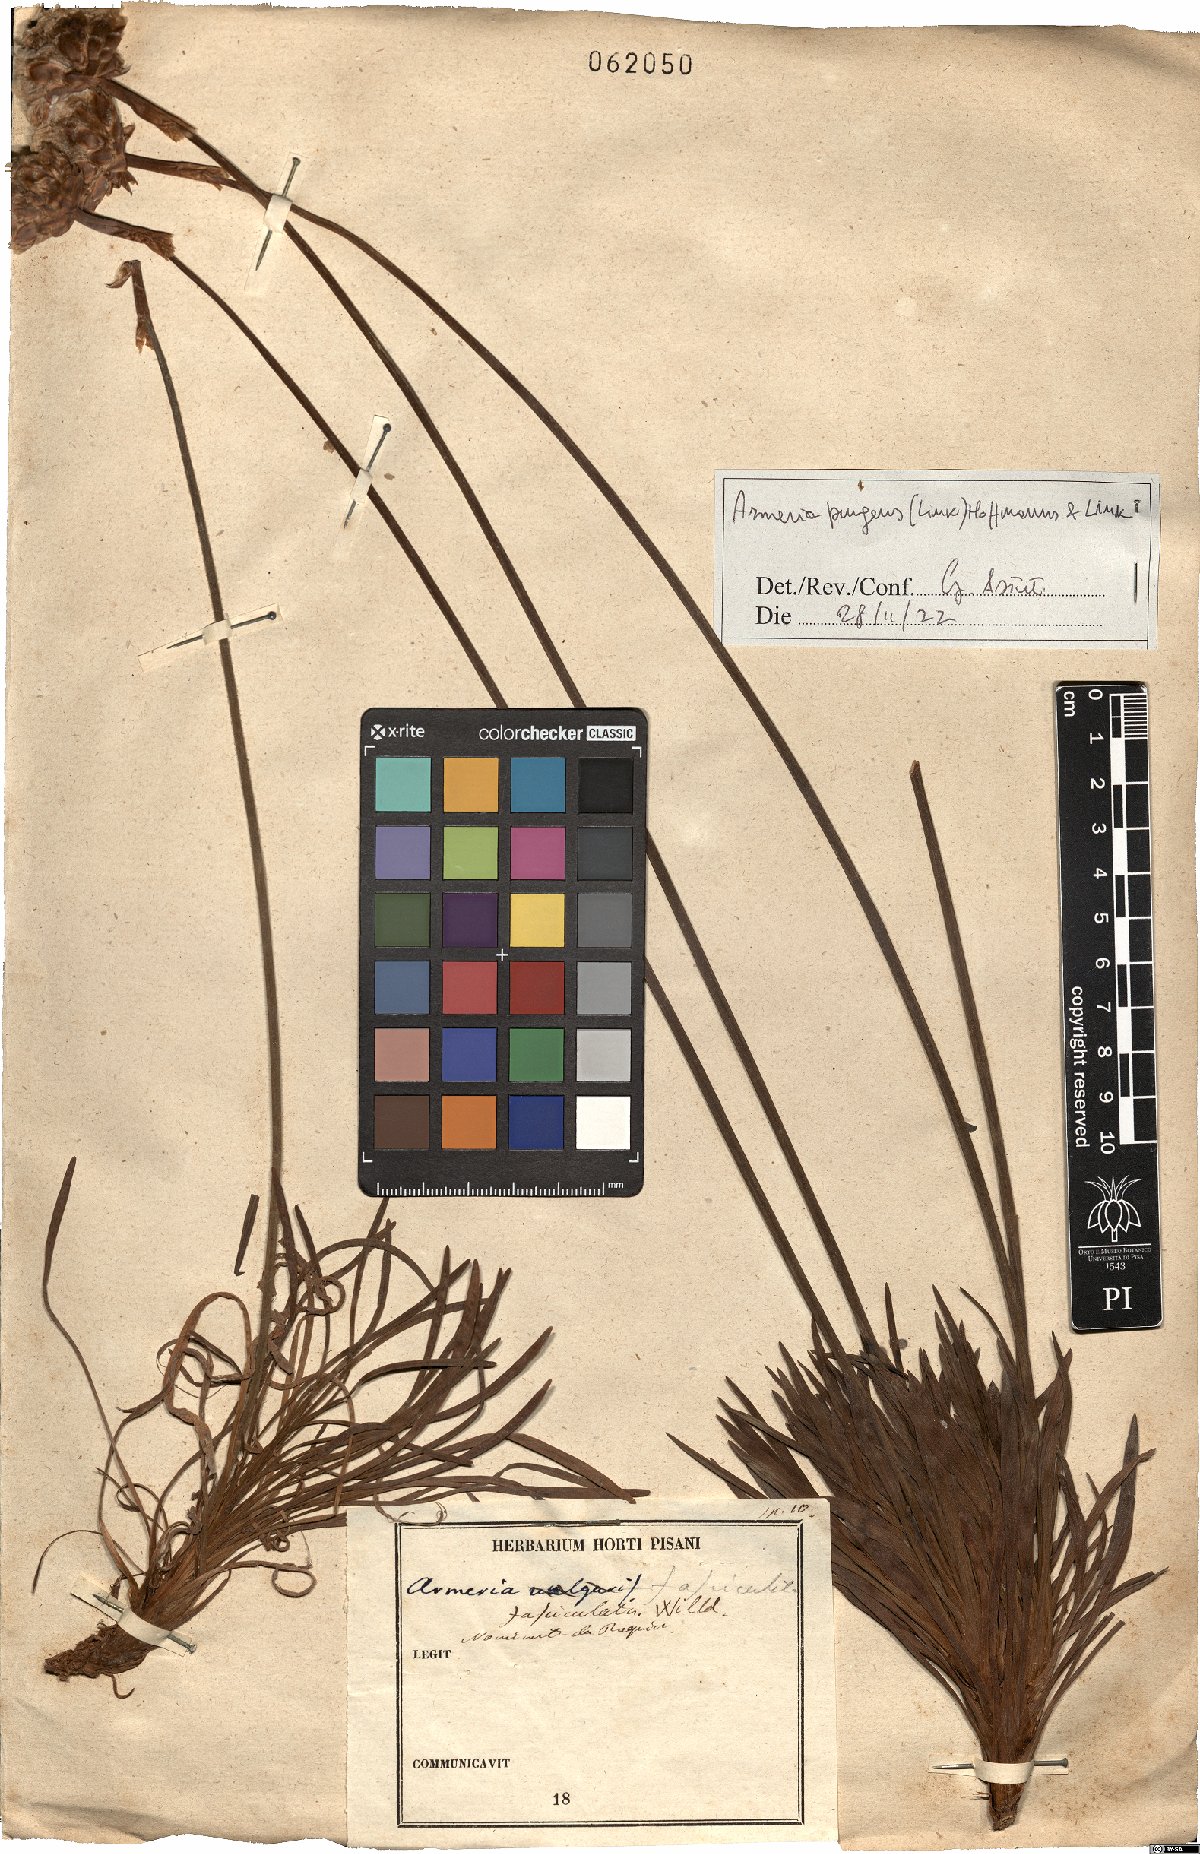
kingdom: Plantae
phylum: Tracheophyta
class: Magnoliopsida
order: Caryophyllales
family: Plumbaginaceae
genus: Armeria
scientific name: Armeria pungens
